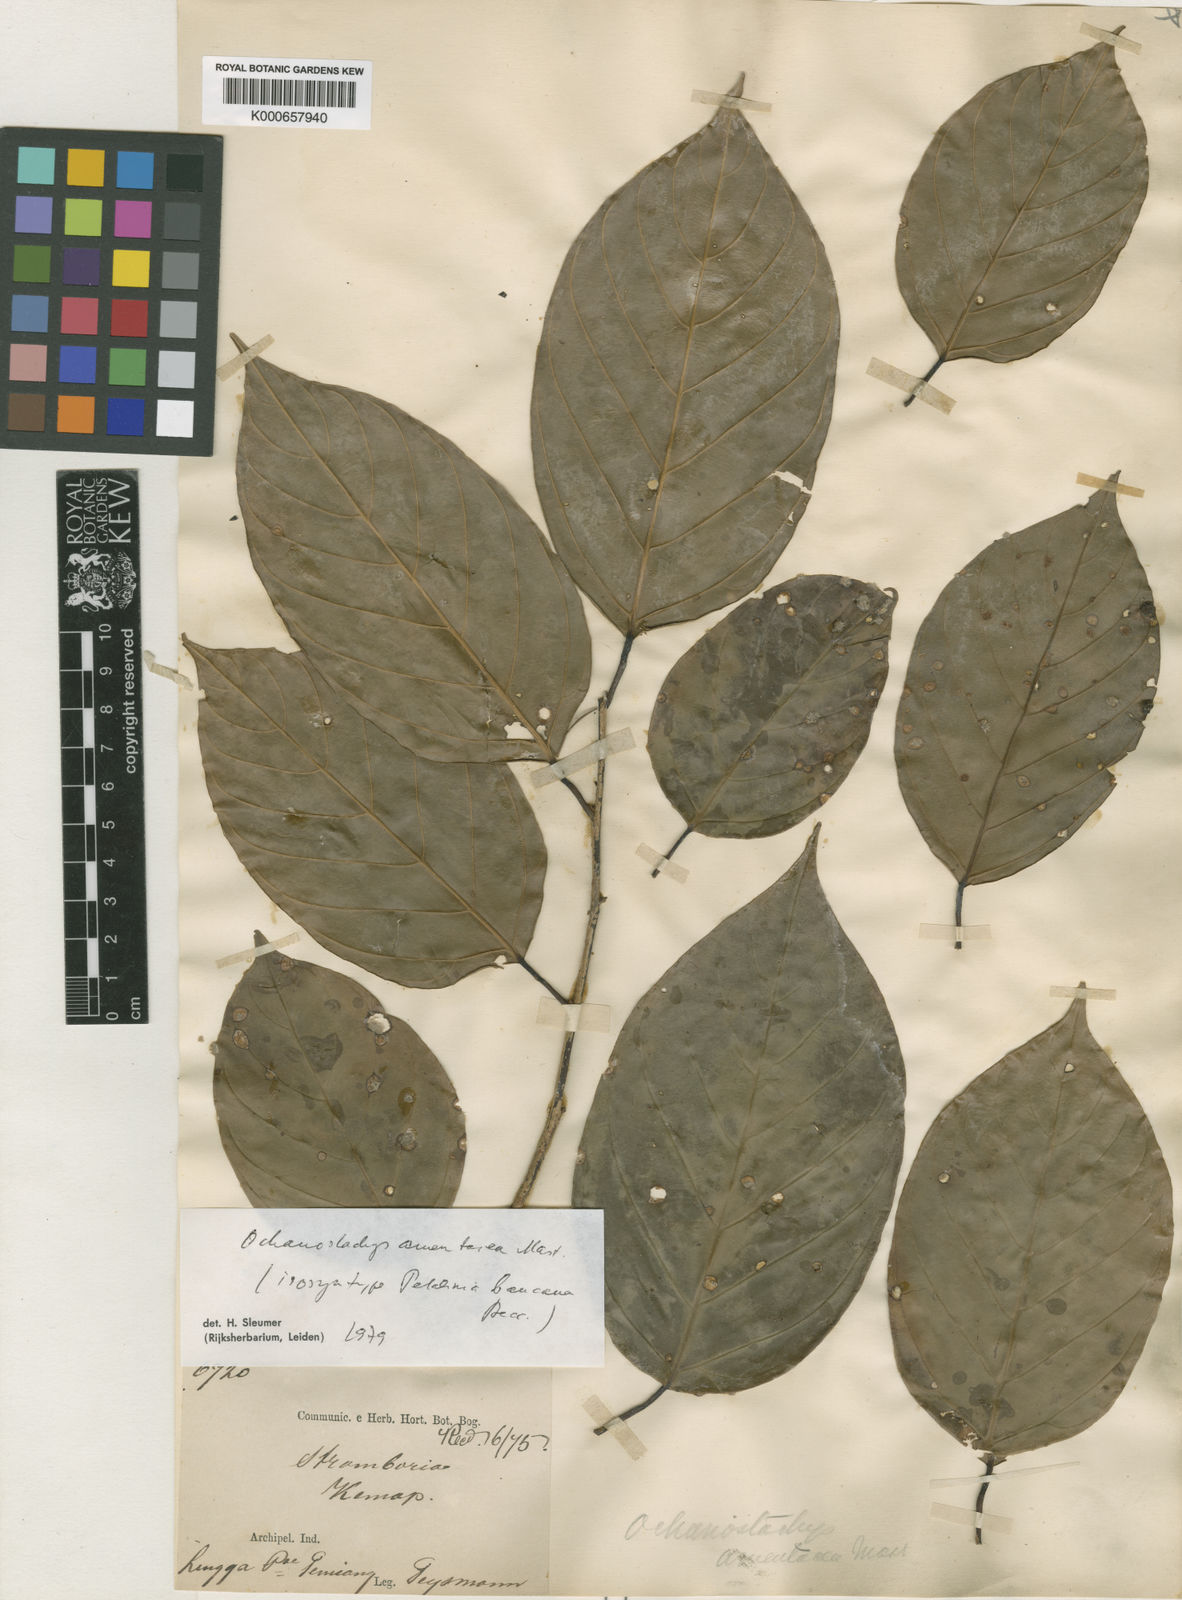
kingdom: Plantae
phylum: Tracheophyta
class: Magnoliopsida
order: Santalales
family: Coulaceae
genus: Ochanostachys
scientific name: Ochanostachys amentacea
